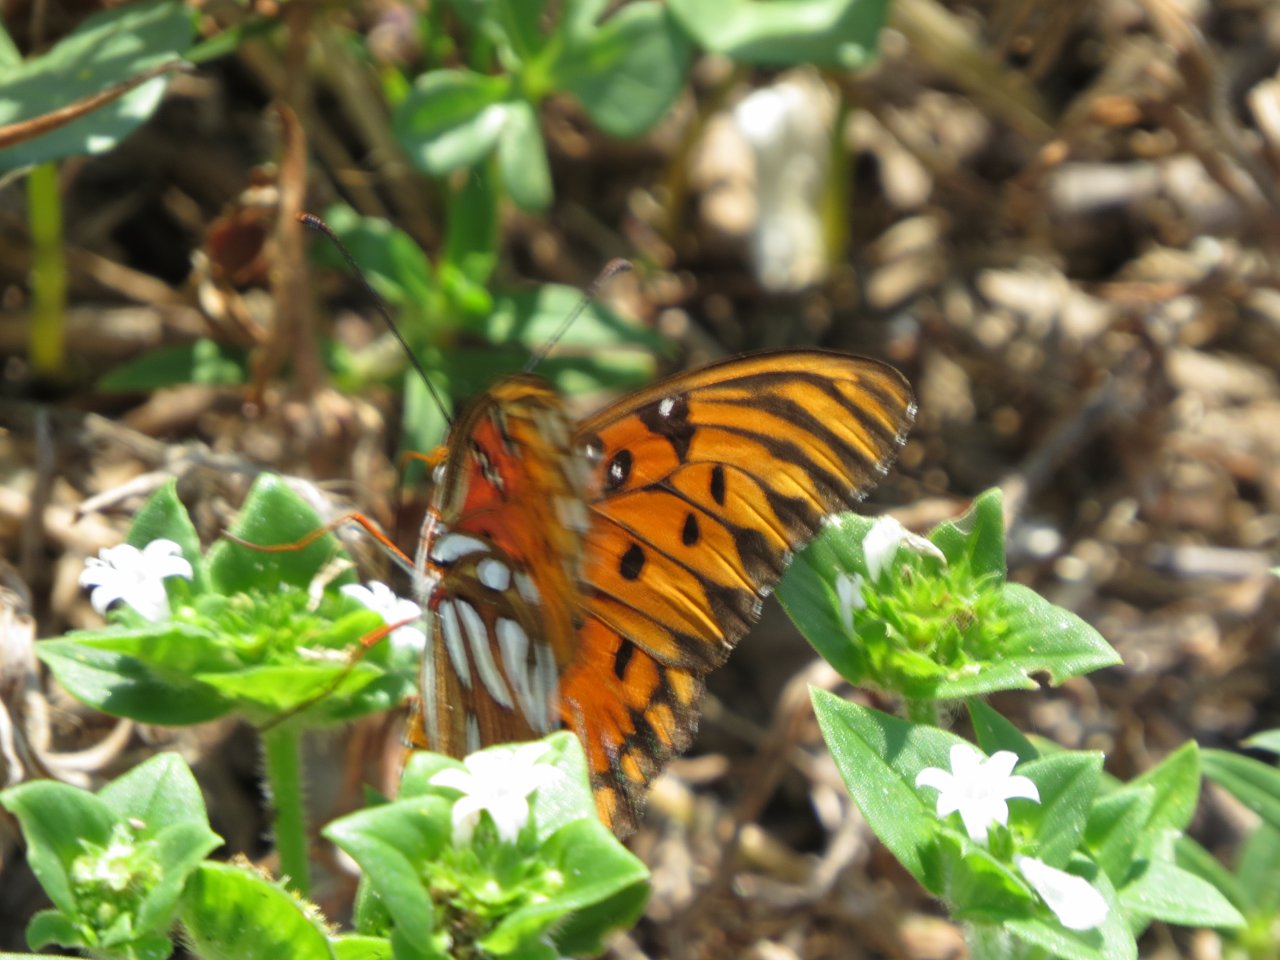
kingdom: Animalia
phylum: Arthropoda
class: Insecta
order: Lepidoptera
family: Nymphalidae
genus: Dione
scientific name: Dione vanillae
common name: Gulf Fritillary
